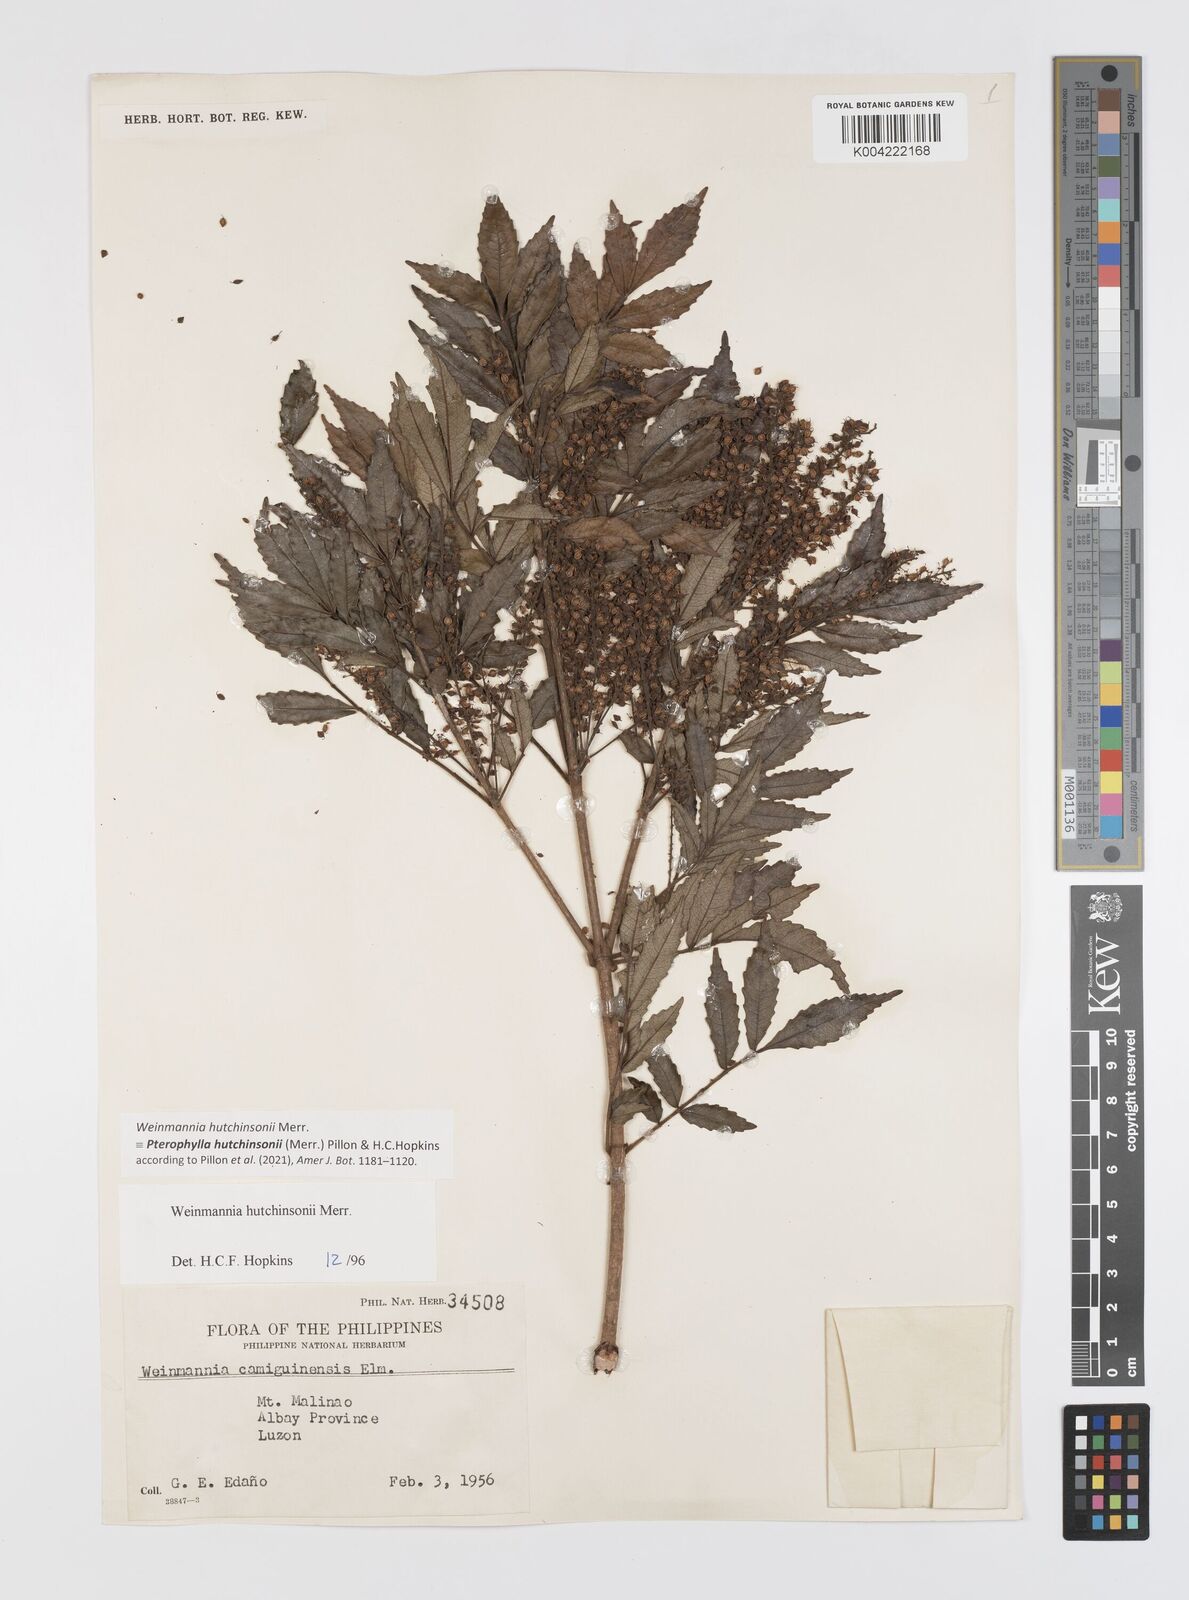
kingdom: Plantae
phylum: Tracheophyta
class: Magnoliopsida
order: Oxalidales
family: Cunoniaceae
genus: Pterophylla
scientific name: Pterophylla hutchinsonii
